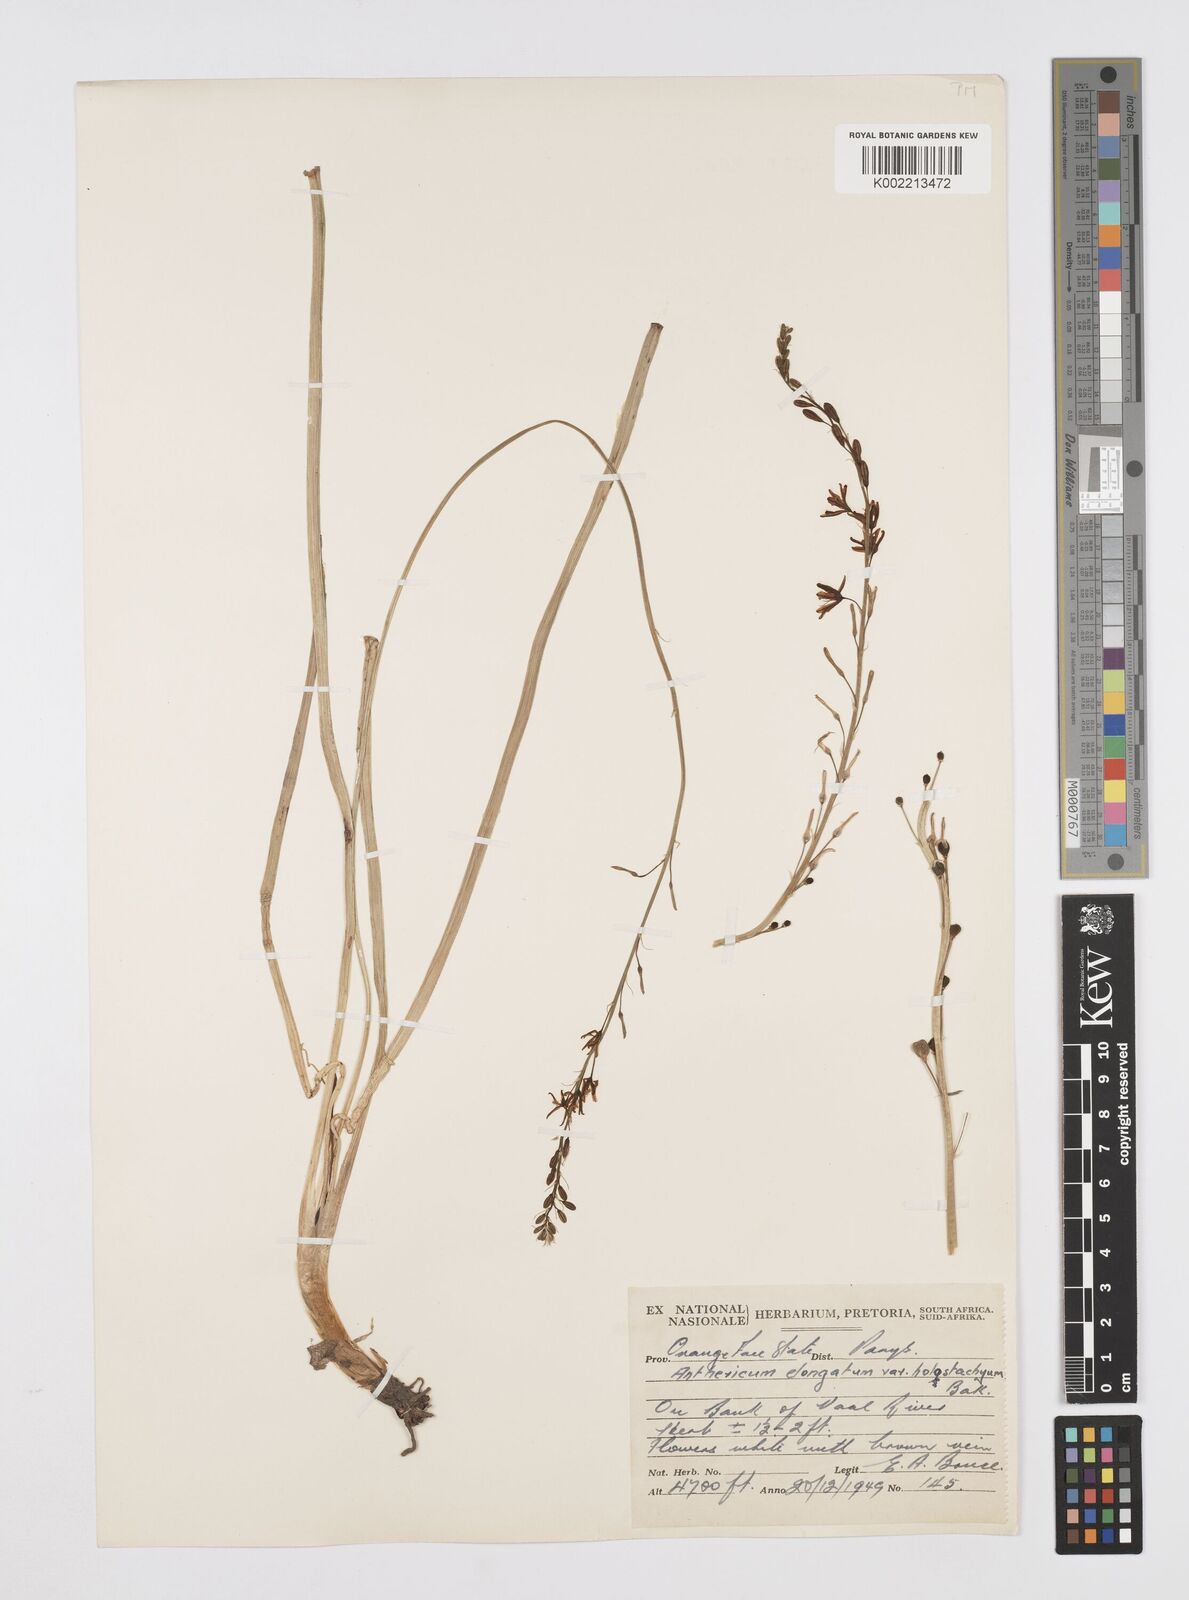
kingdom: Plantae
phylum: Tracheophyta
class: Liliopsida
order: Asparagales
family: Asphodelaceae
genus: Trachyandra
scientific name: Trachyandra saltii
